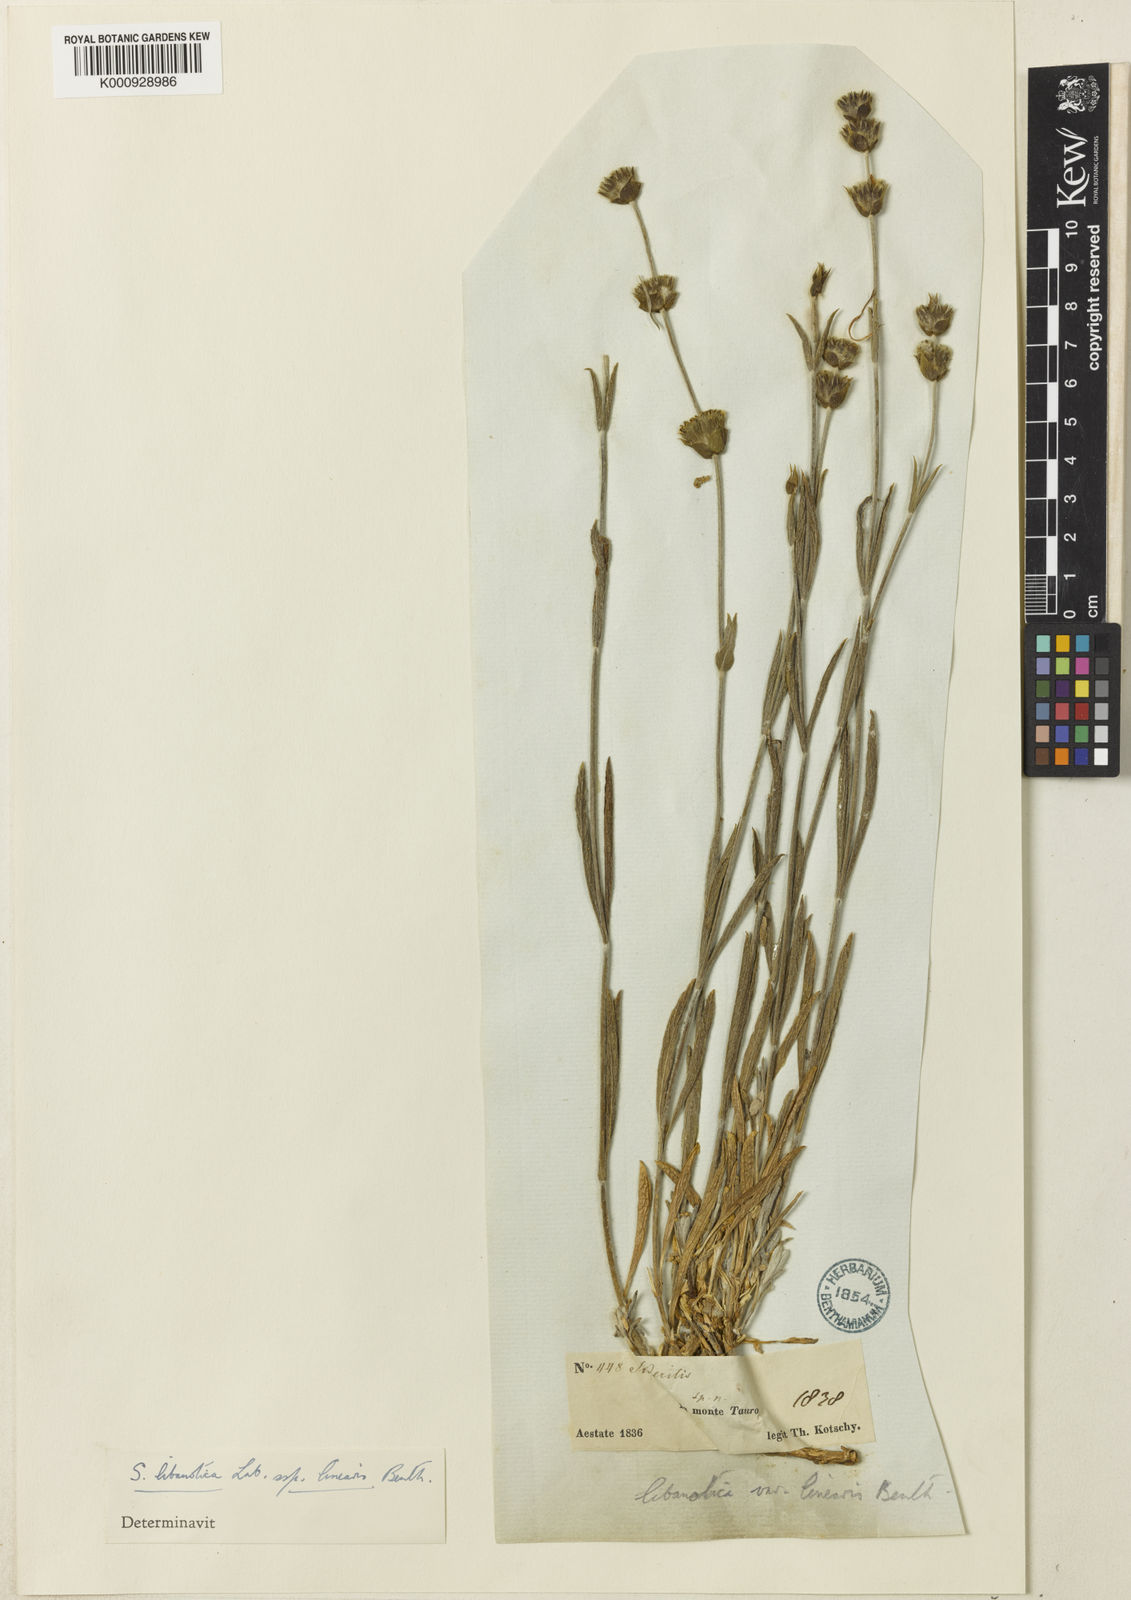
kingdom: Plantae
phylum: Tracheophyta
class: Magnoliopsida
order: Lamiales
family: Lamiaceae
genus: Sideritis
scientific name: Sideritis libanotica
